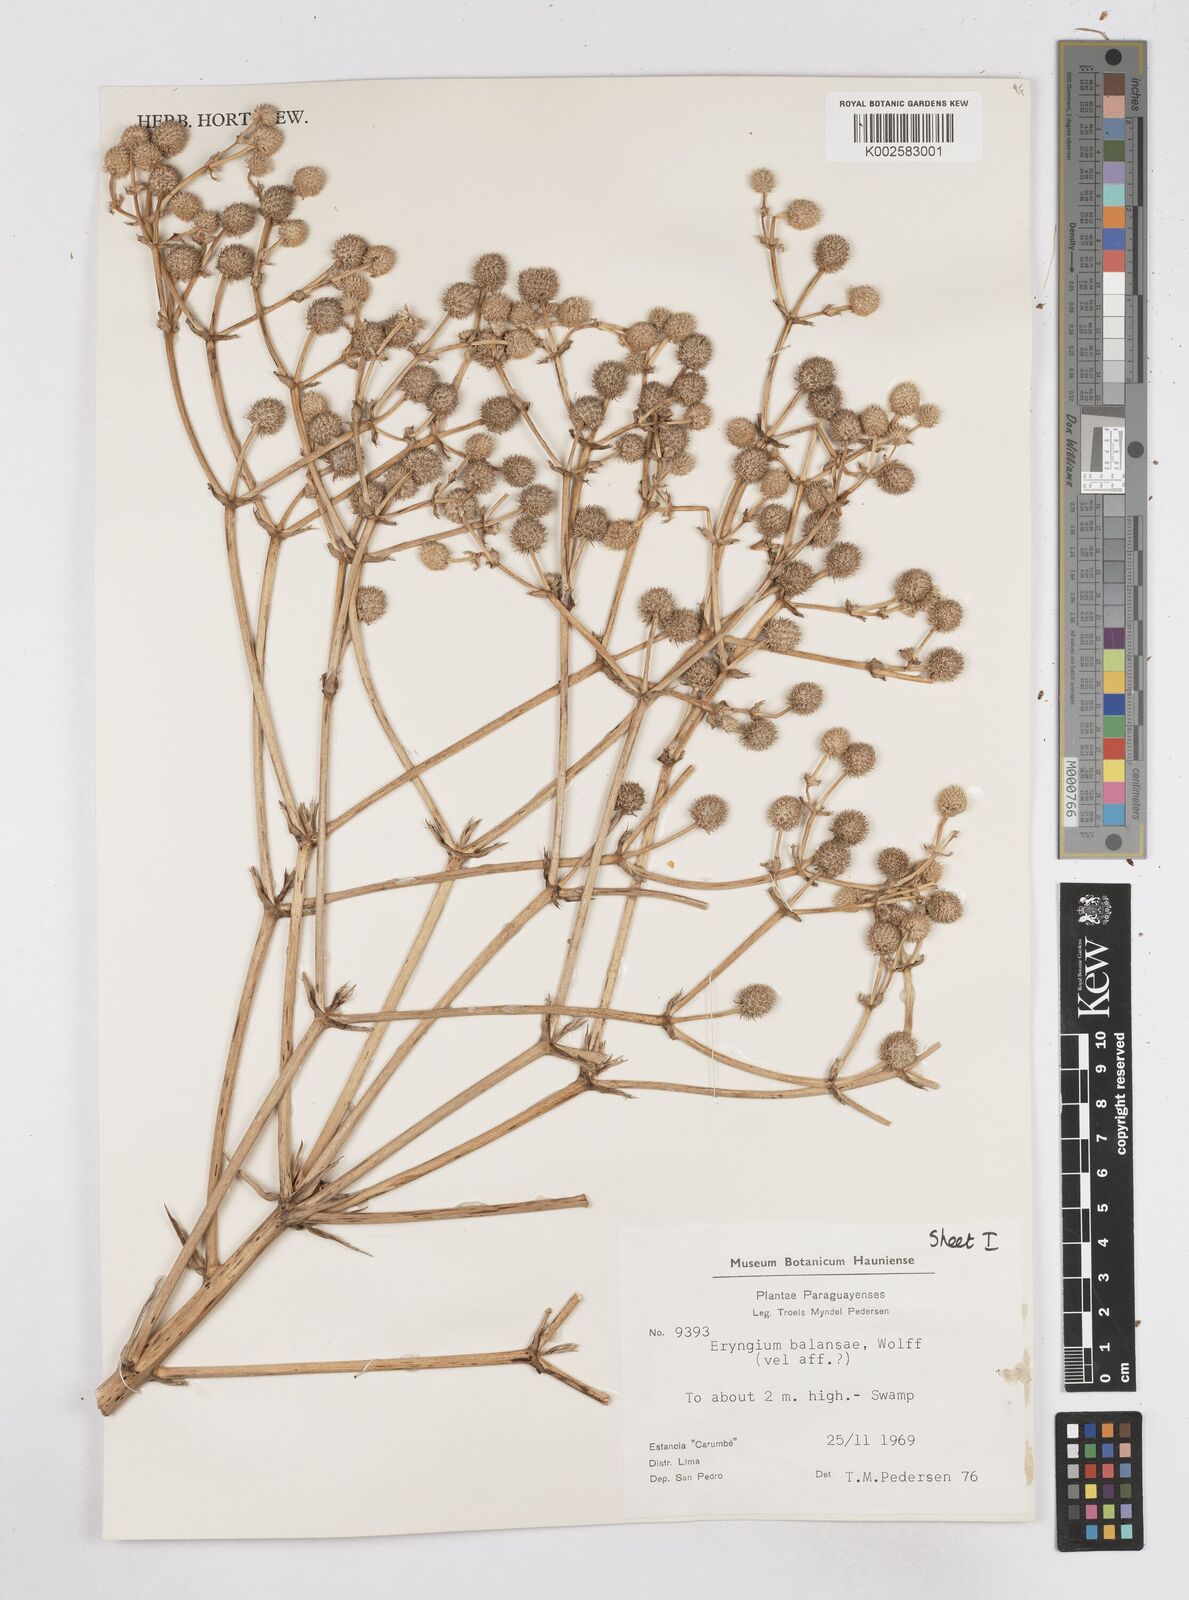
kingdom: Plantae
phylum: Tracheophyta
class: Magnoliopsida
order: Apiales
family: Apiaceae
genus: Eryngium
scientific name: Eryngium balansae
